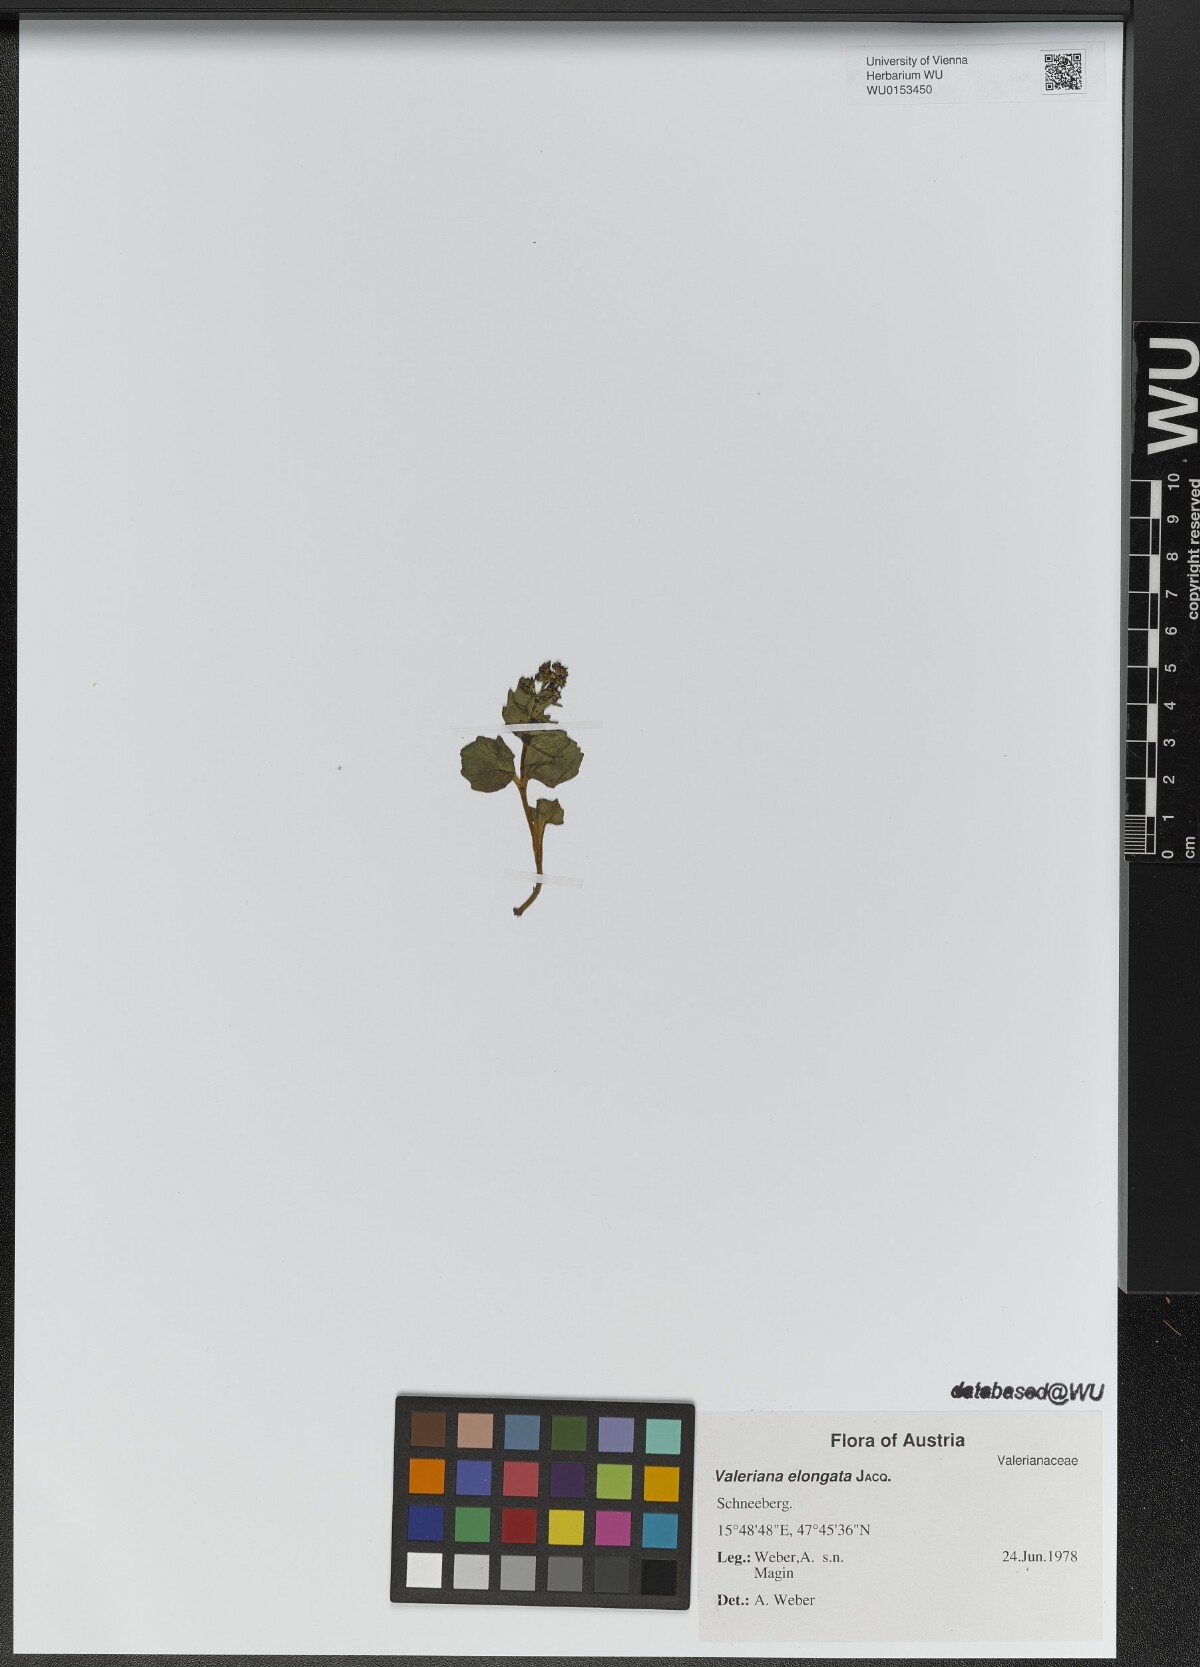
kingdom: Plantae
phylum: Tracheophyta
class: Magnoliopsida
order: Dipsacales
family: Caprifoliaceae
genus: Valeriana
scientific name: Valeriana elongata
